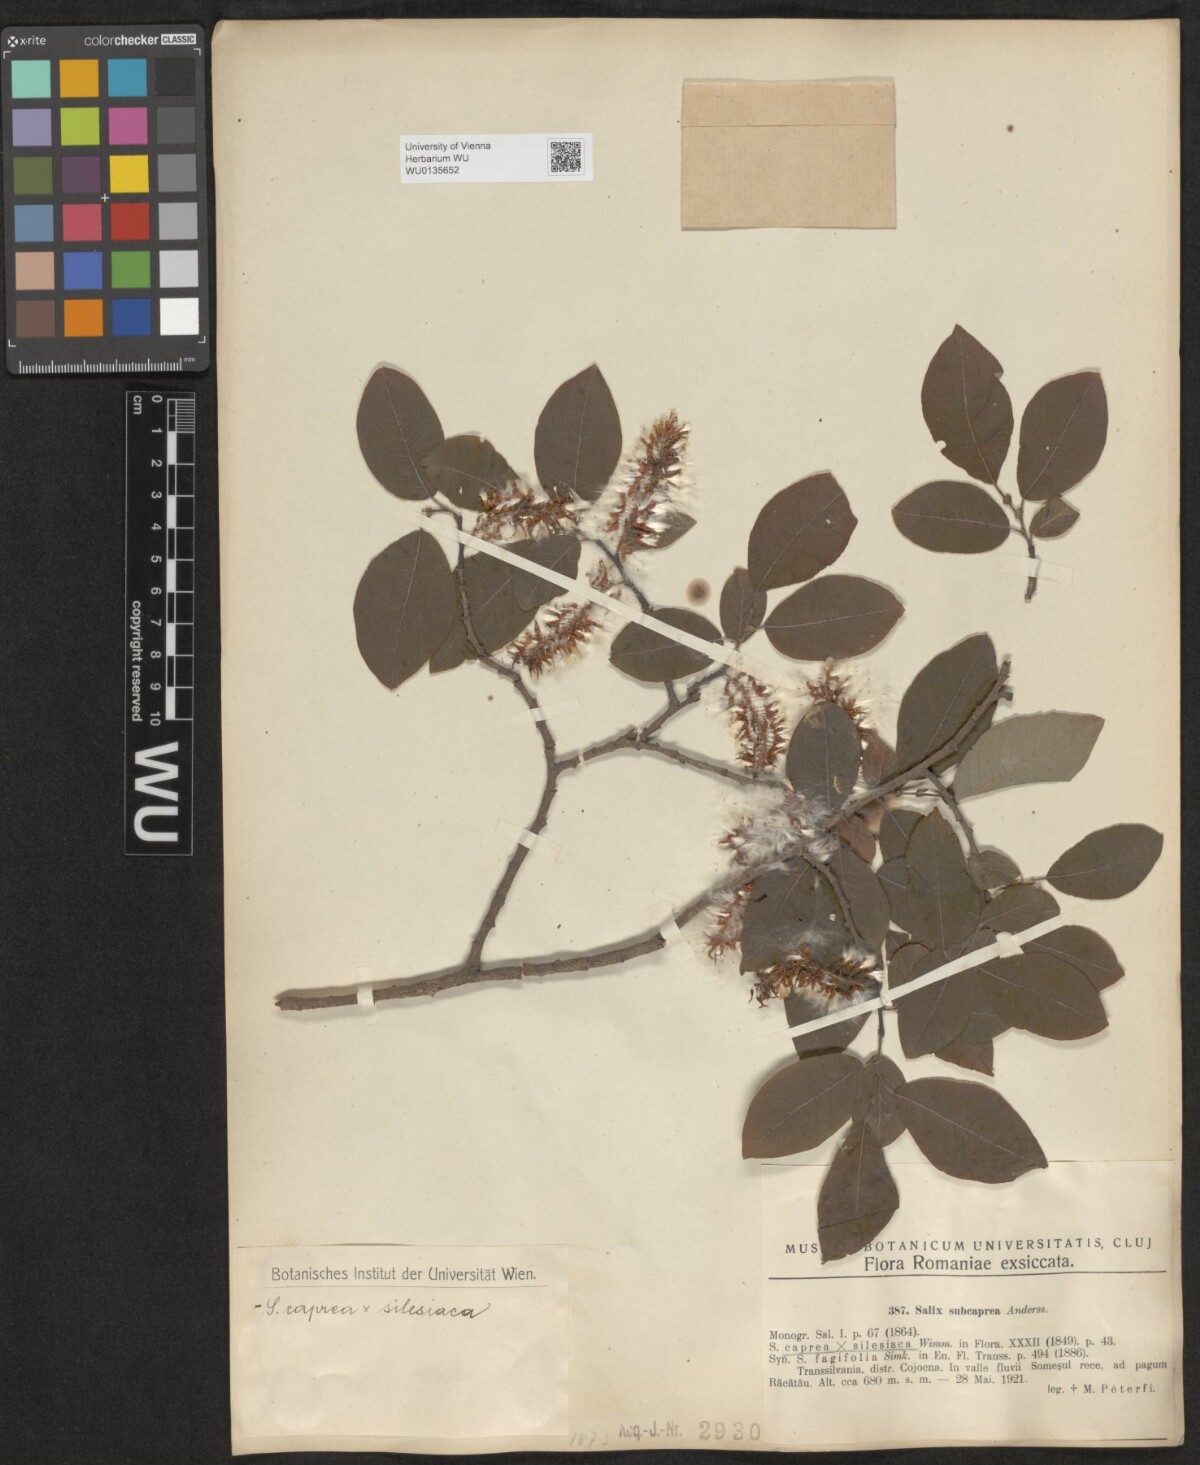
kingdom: Plantae
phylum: Tracheophyta
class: Magnoliopsida
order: Malpighiales
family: Salicaceae
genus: Salix
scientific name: Salix
